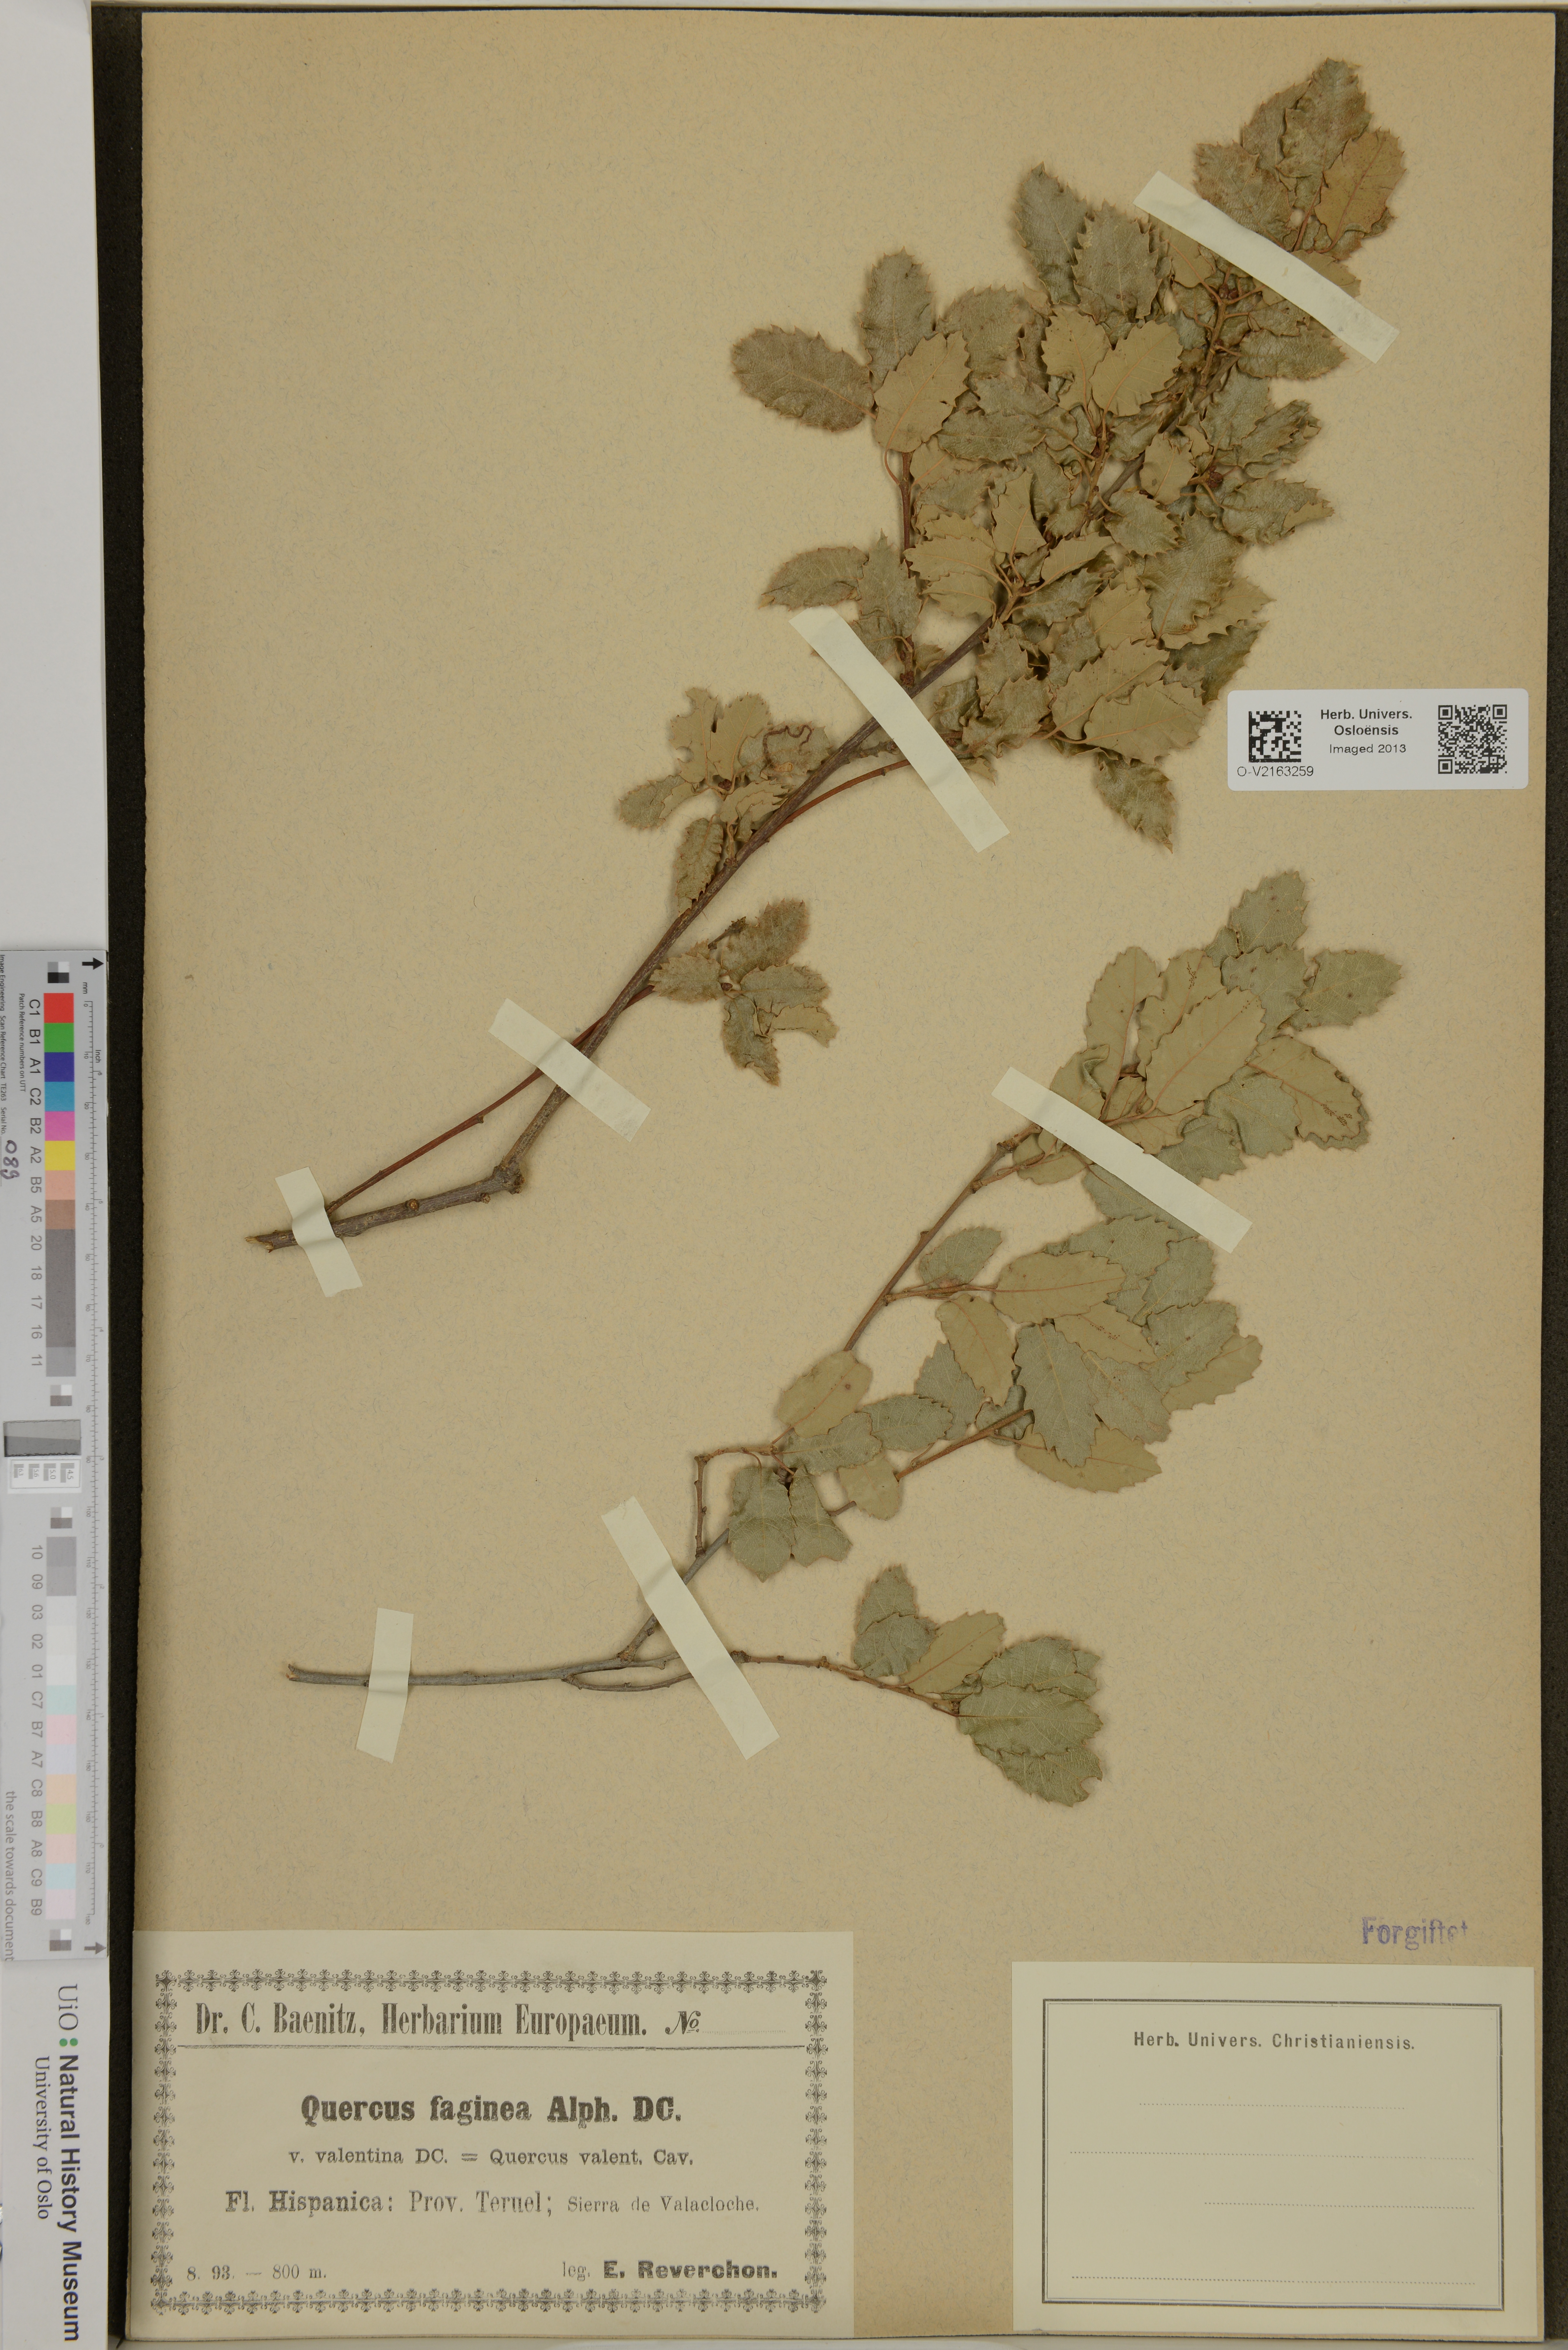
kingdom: Plantae
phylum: Tracheophyta
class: Magnoliopsida
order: Fagales
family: Fagaceae
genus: Quercus
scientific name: Quercus faginea
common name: Gall oak tree
